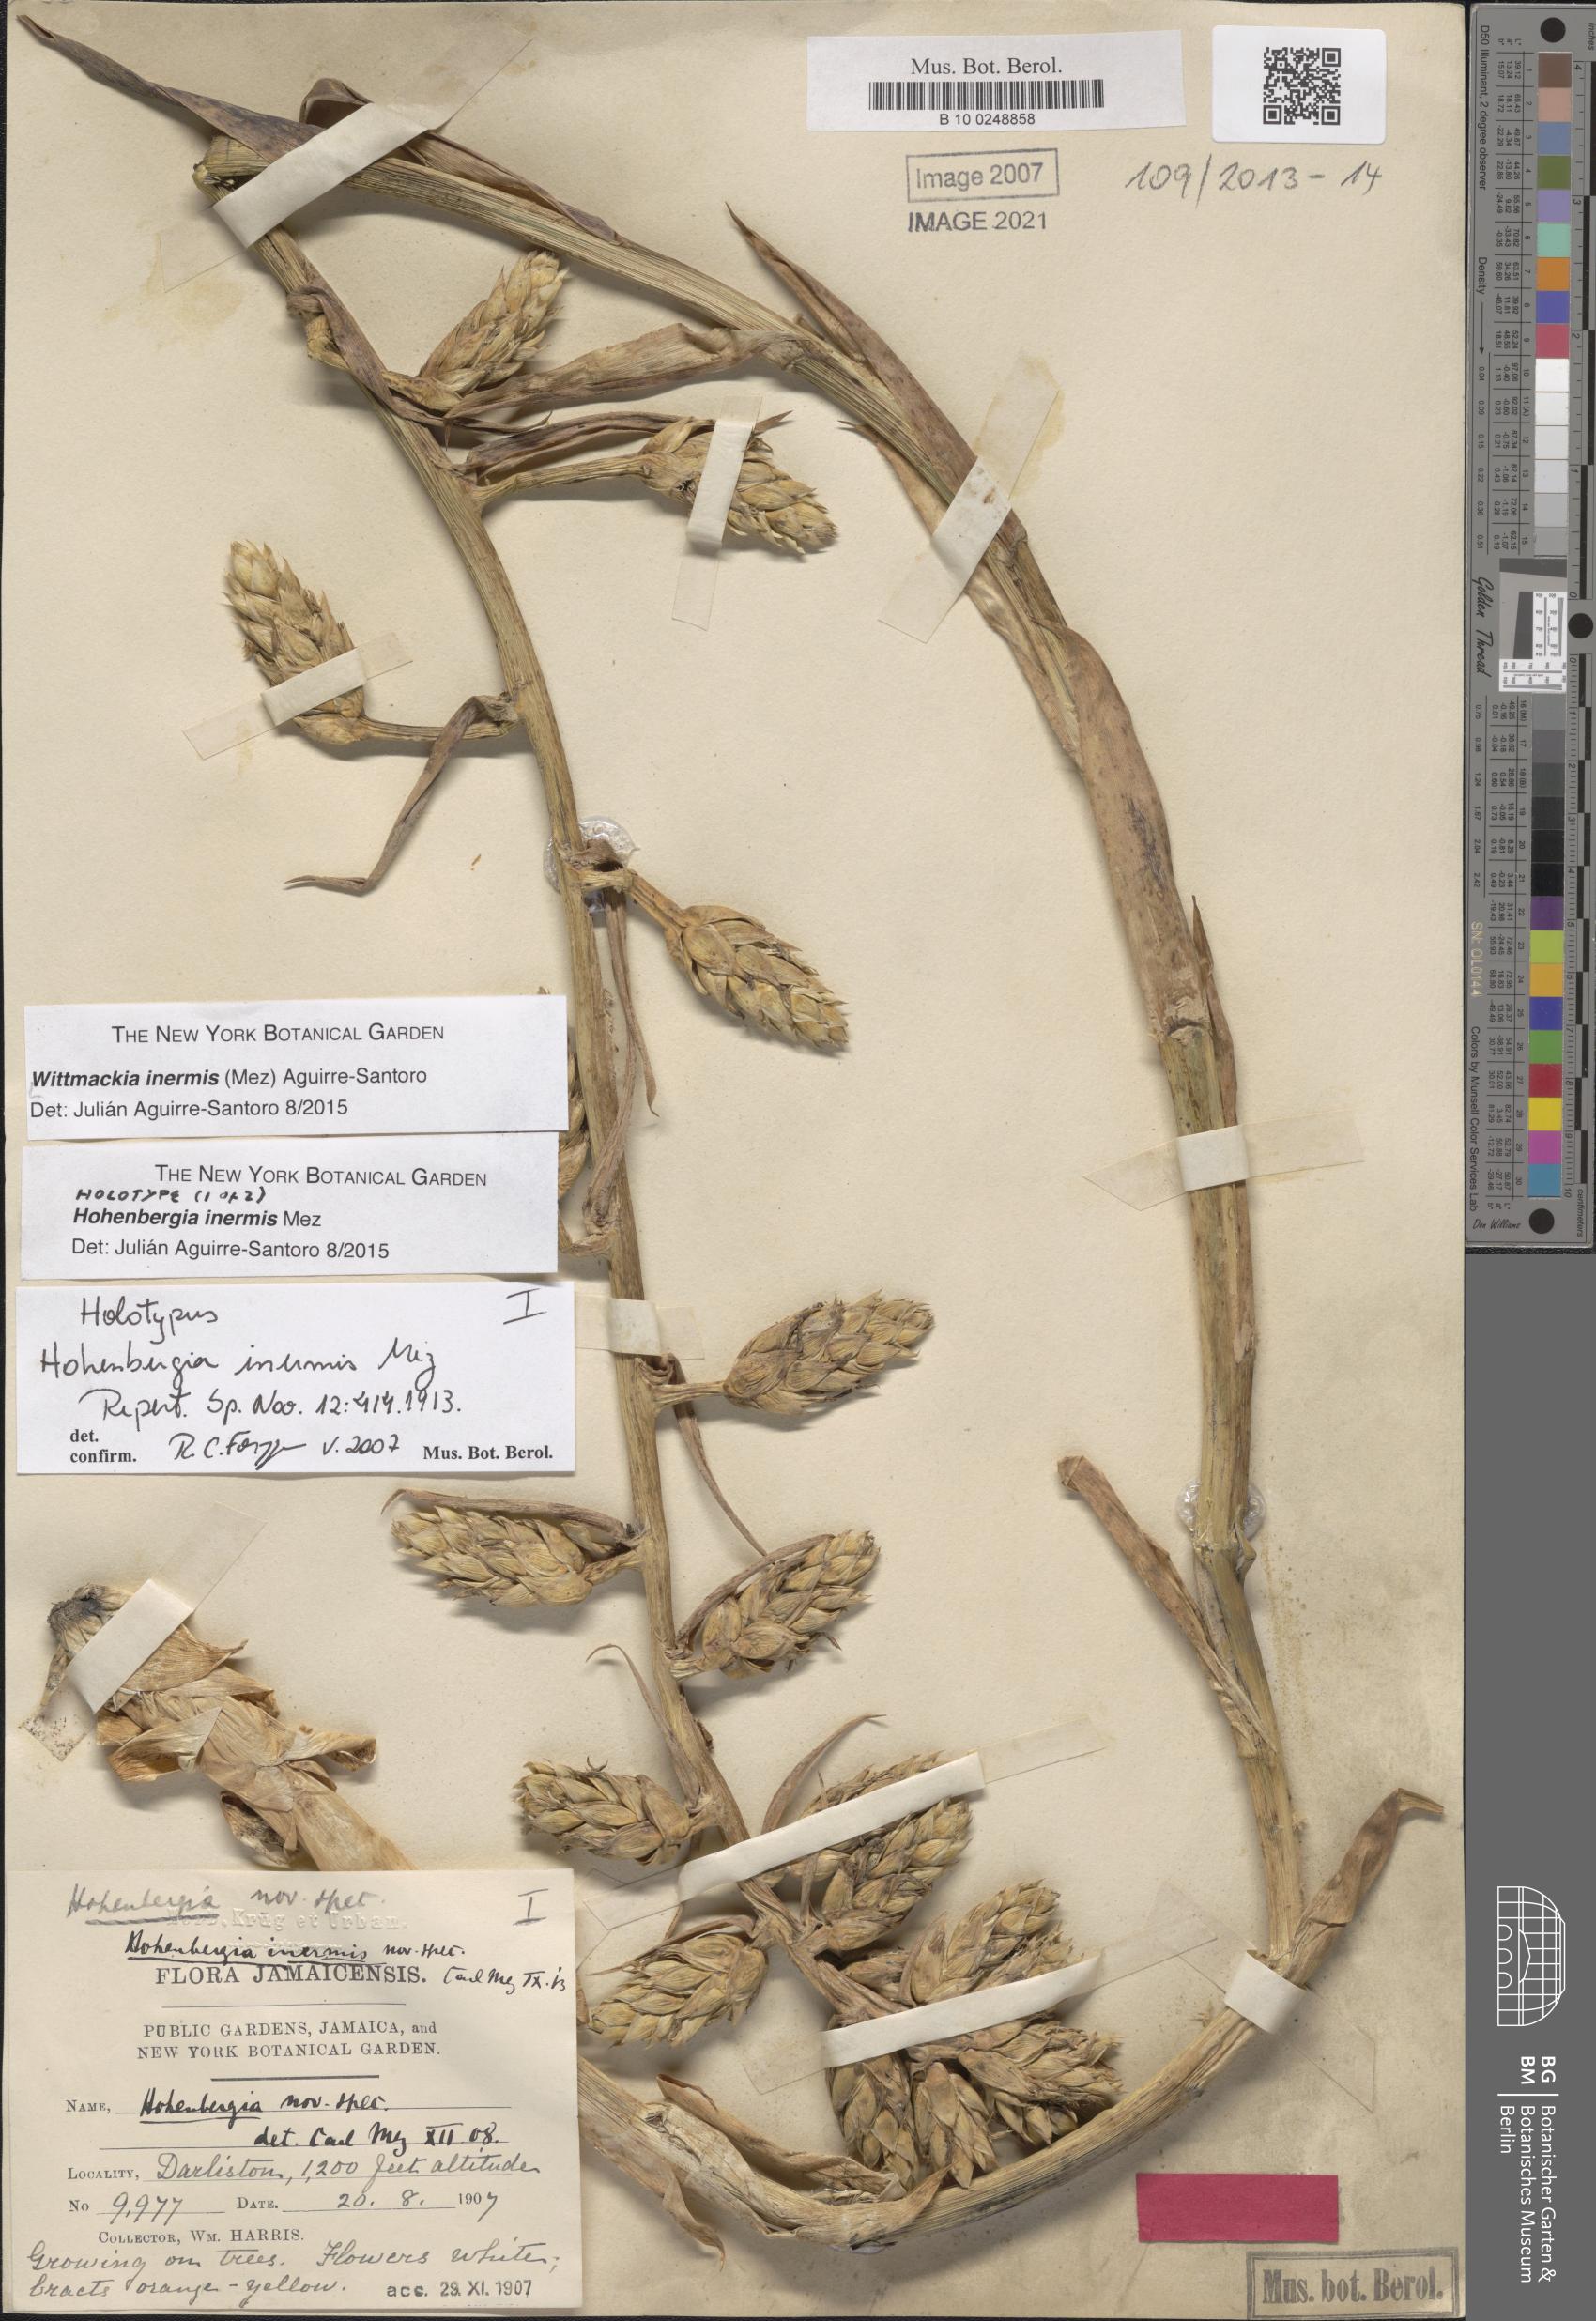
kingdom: Plantae
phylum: Tracheophyta
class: Liliopsida
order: Poales
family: Bromeliaceae
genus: Wittmackia
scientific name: Wittmackia inermis
